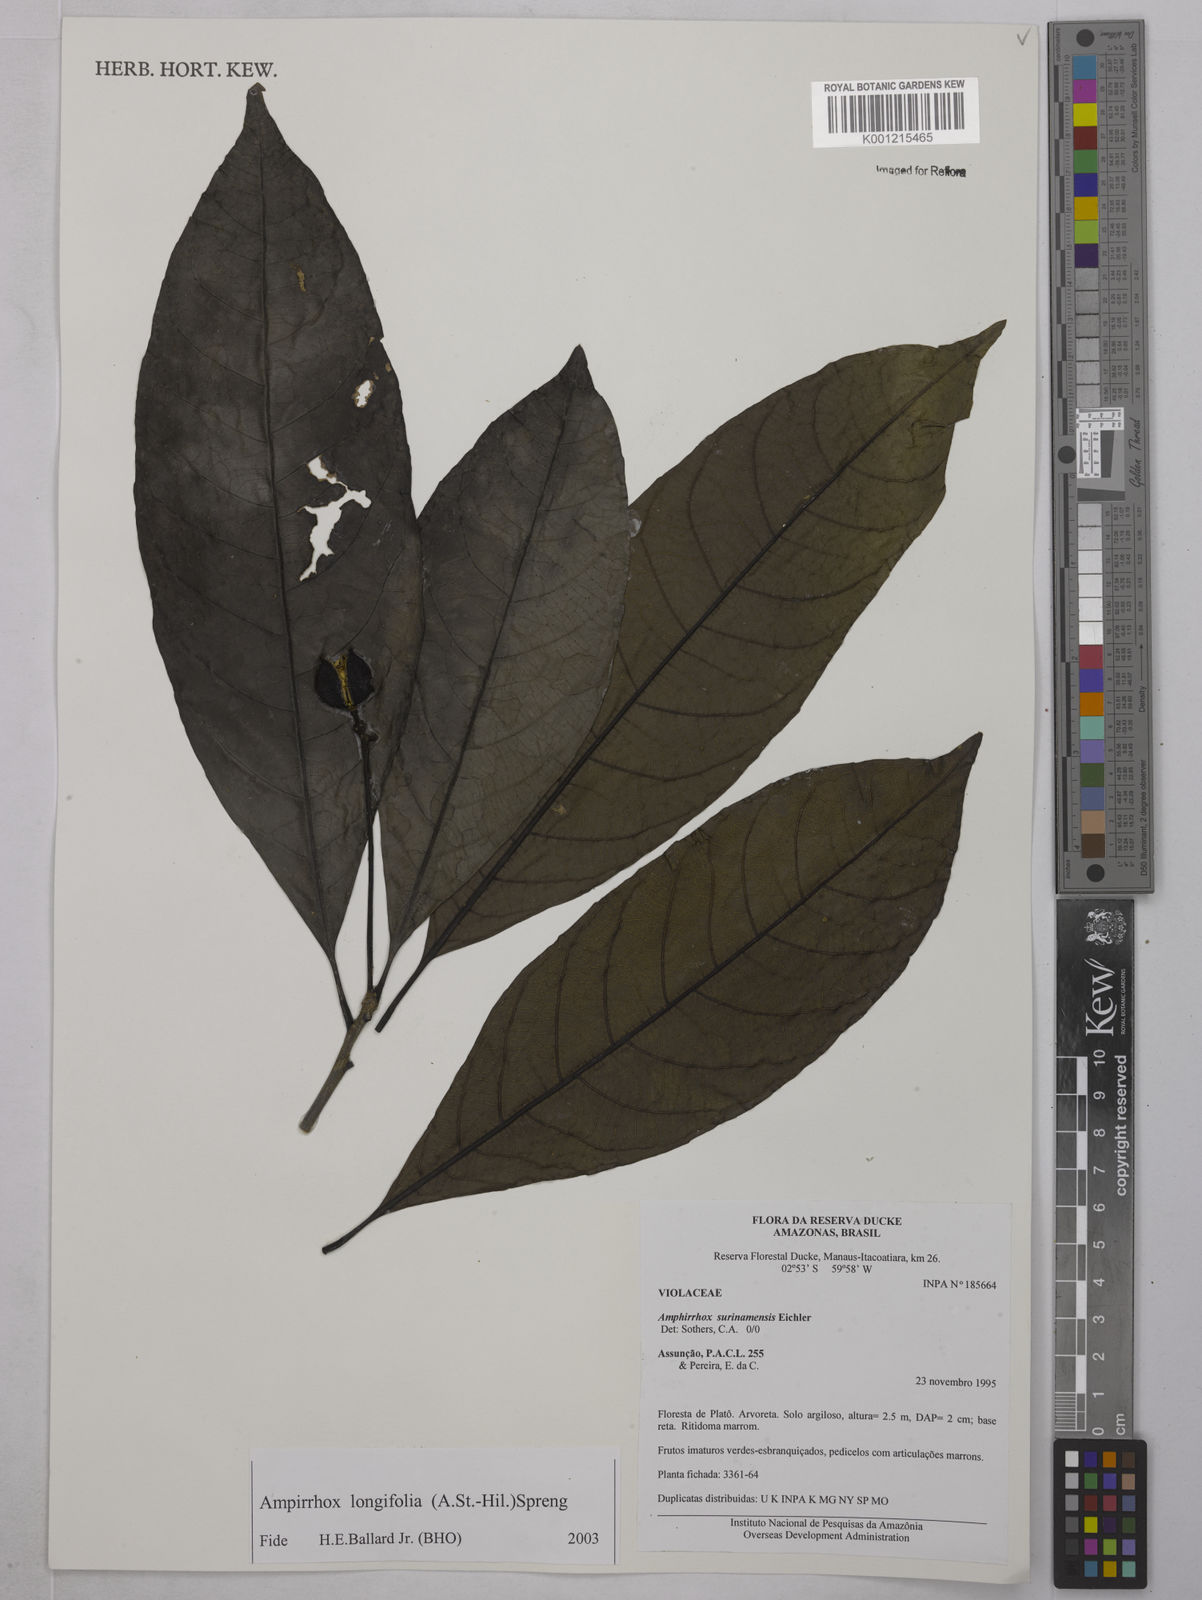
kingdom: Plantae
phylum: Tracheophyta
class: Magnoliopsida
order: Malpighiales
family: Violaceae
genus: Amphirrhox
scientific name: Amphirrhox longifolia
